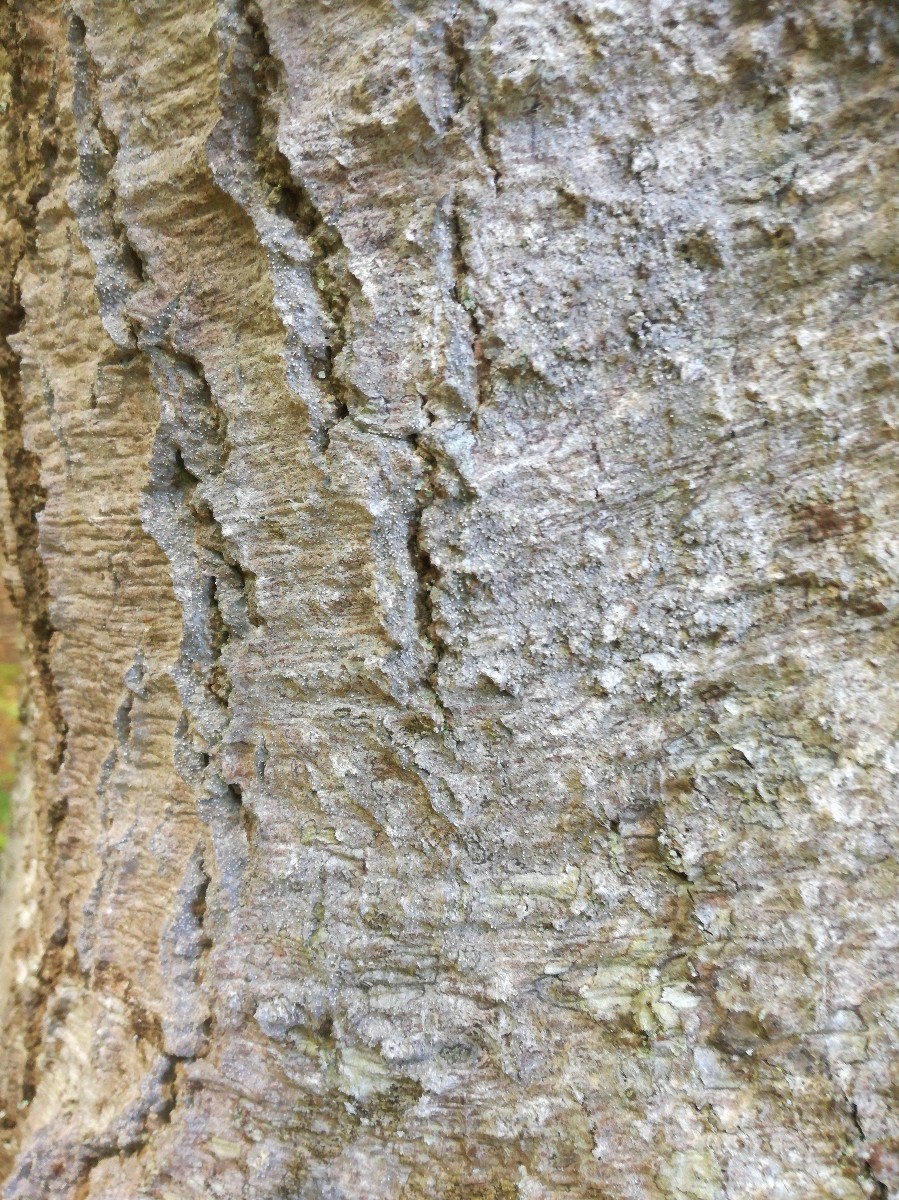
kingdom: Fungi
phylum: Ascomycota
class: Arthoniomycetes
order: Arthoniales
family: Roccellaceae
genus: Lecanactis
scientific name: Lecanactis abietina
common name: grå dugskivelav
